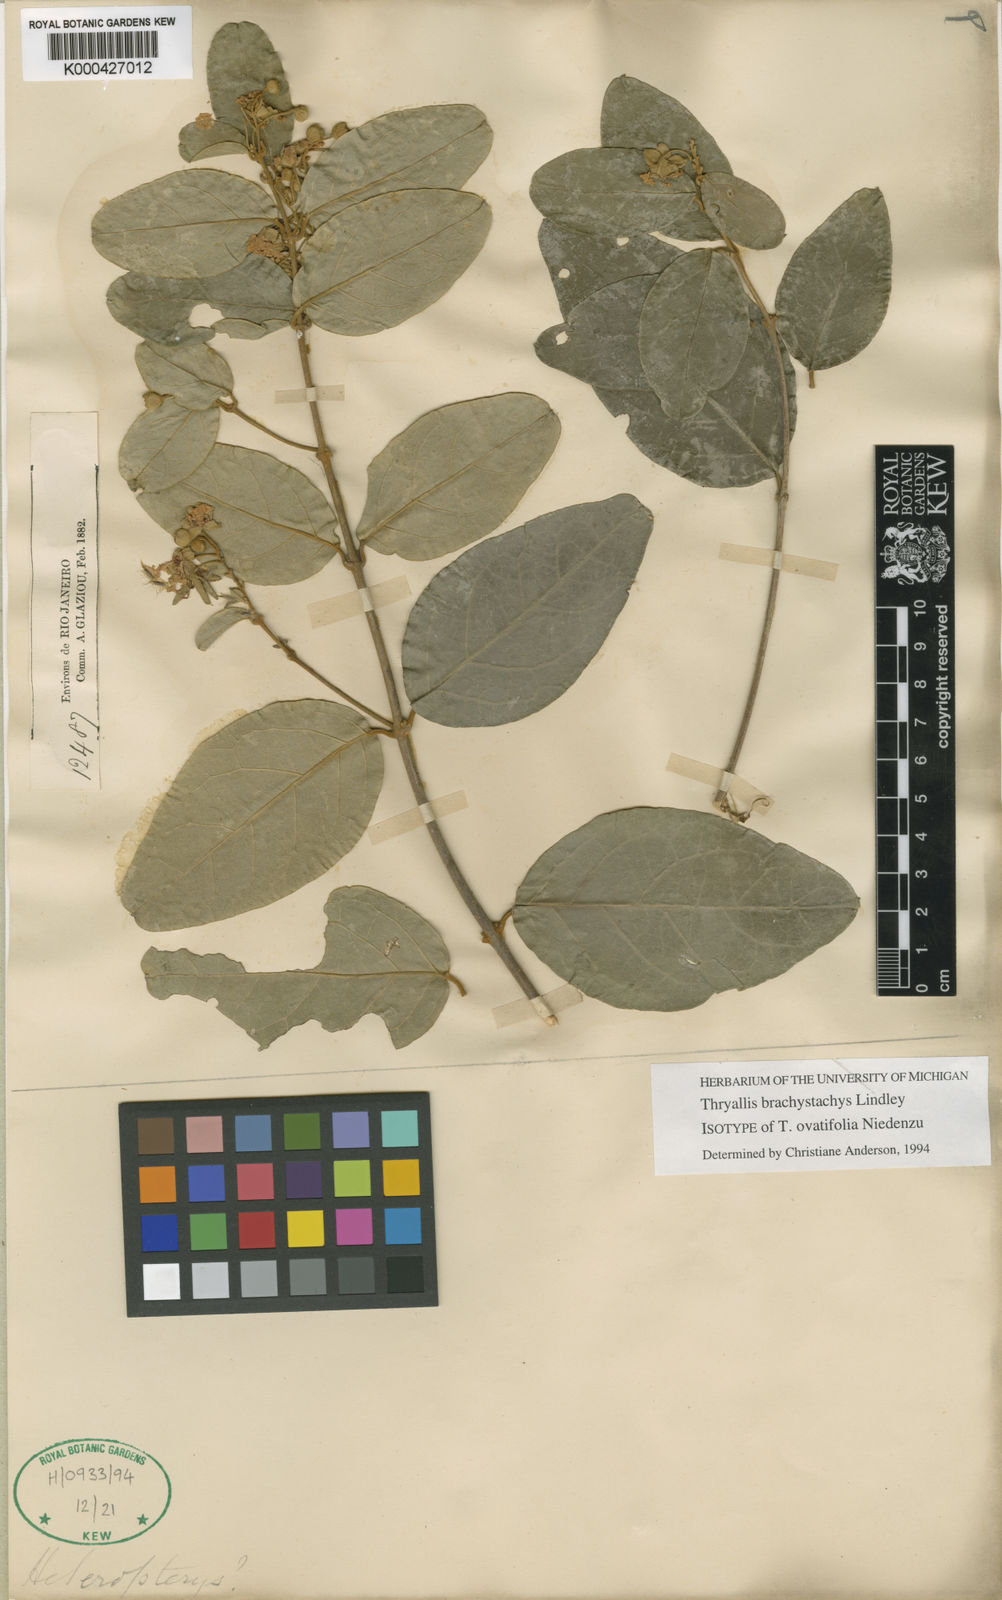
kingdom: Plantae
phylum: Tracheophyta
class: Magnoliopsida
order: Malpighiales
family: Malpighiaceae
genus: Thryallis
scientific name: Thryallis brachystachys
